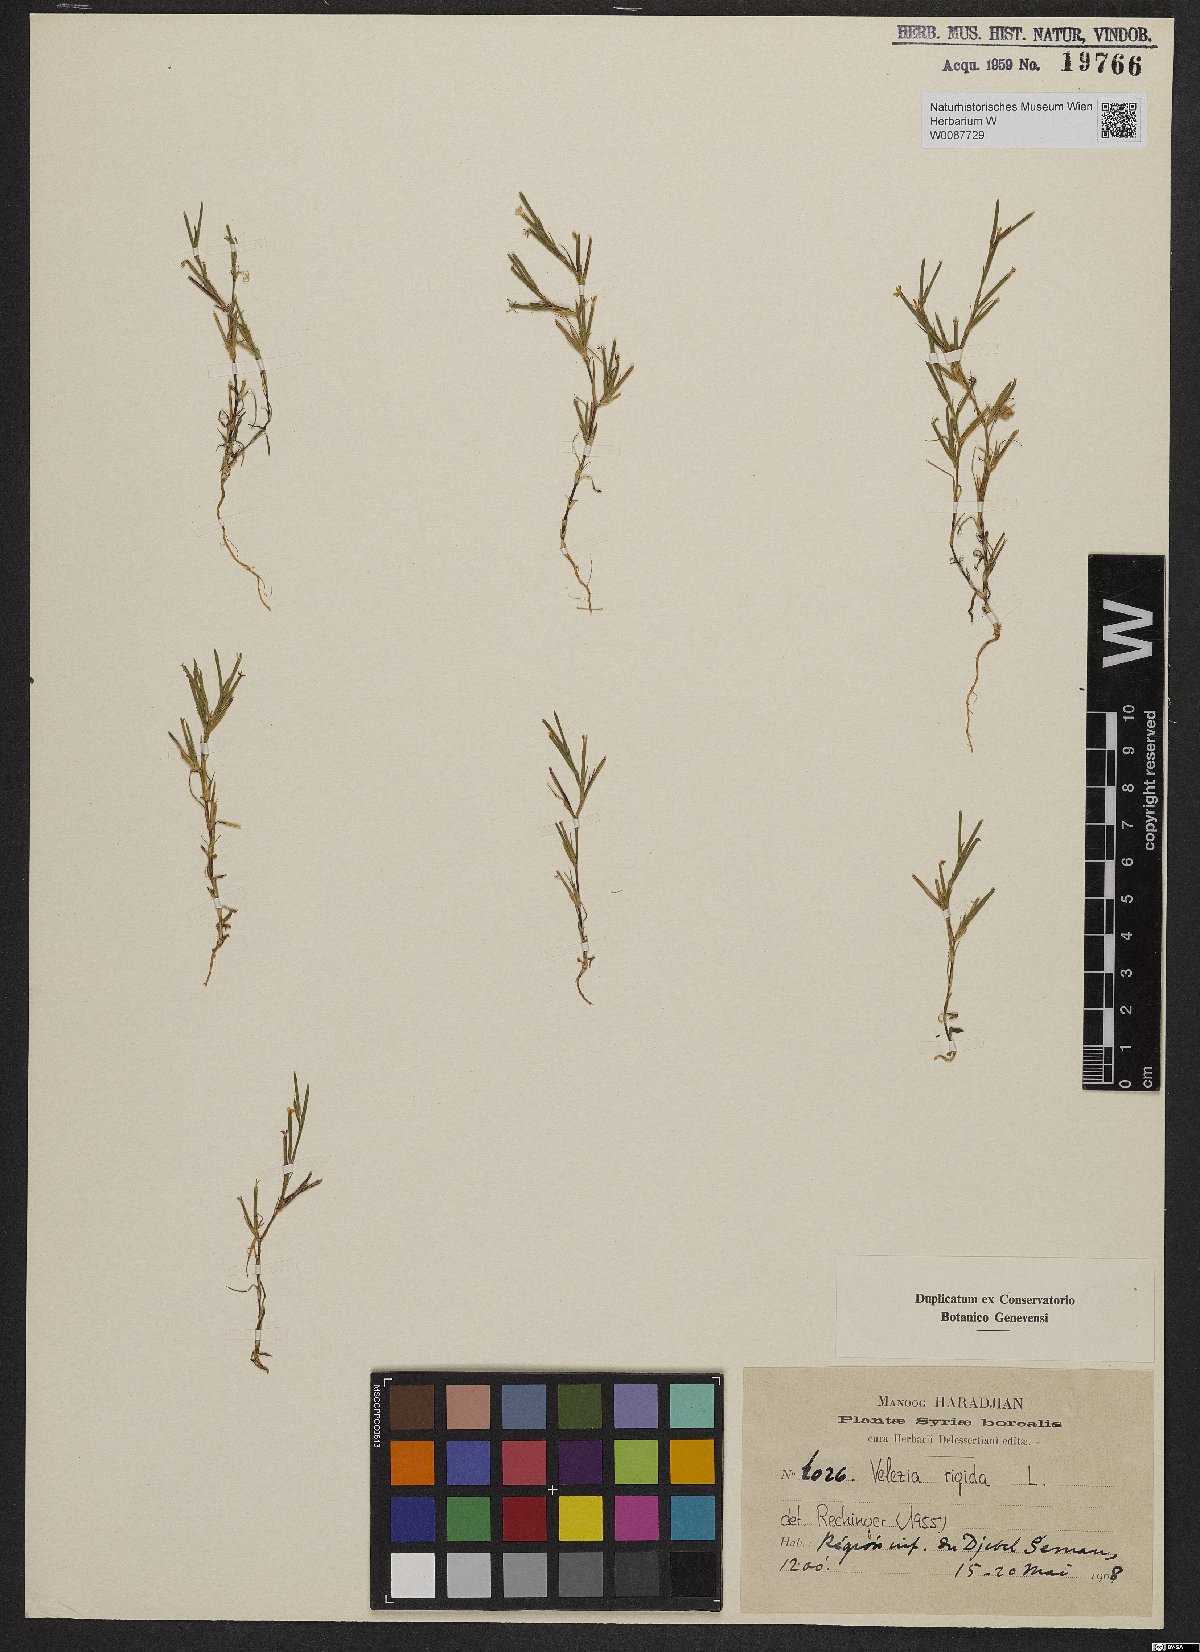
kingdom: Plantae
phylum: Tracheophyta
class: Magnoliopsida
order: Caryophyllales
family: Caryophyllaceae
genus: Dianthus
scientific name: Dianthus nudiflorus
